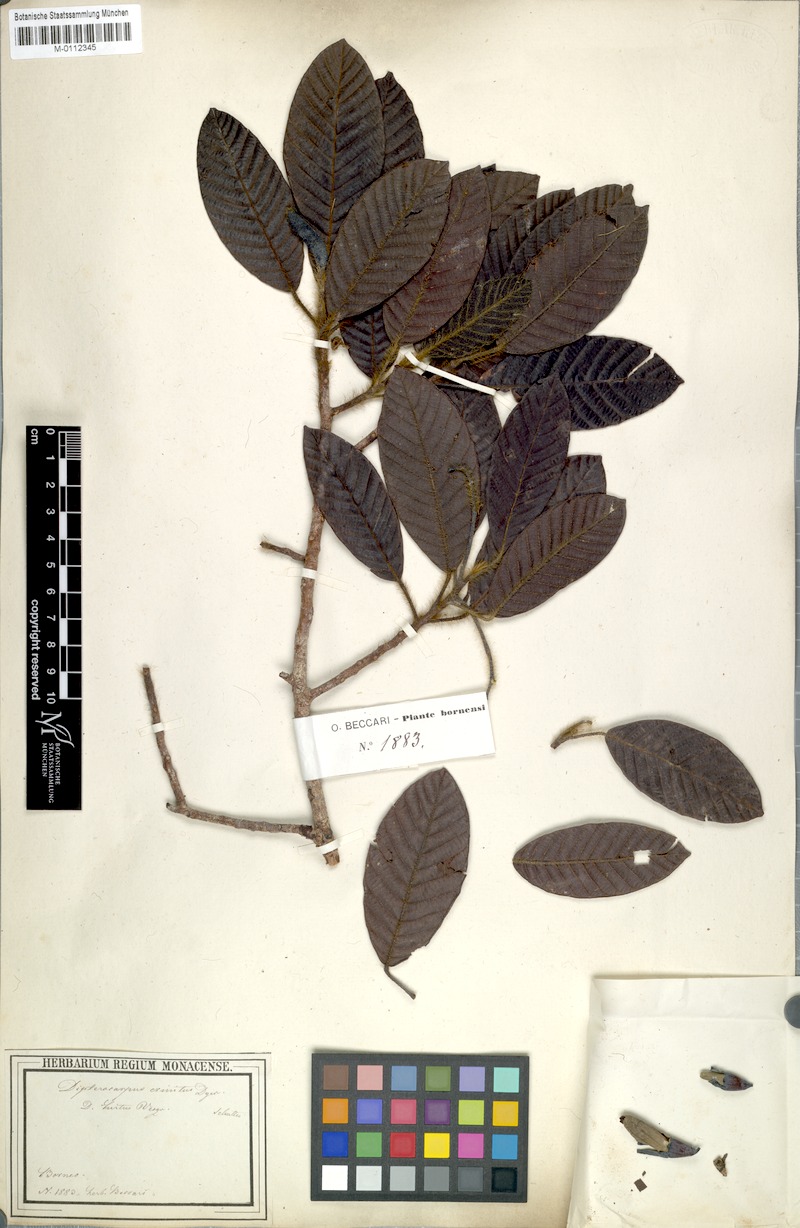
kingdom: Plantae
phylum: Tracheophyta
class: Magnoliopsida
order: Malvales
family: Dipterocarpaceae
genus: Dipterocarpus
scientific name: Dipterocarpus crinitus
